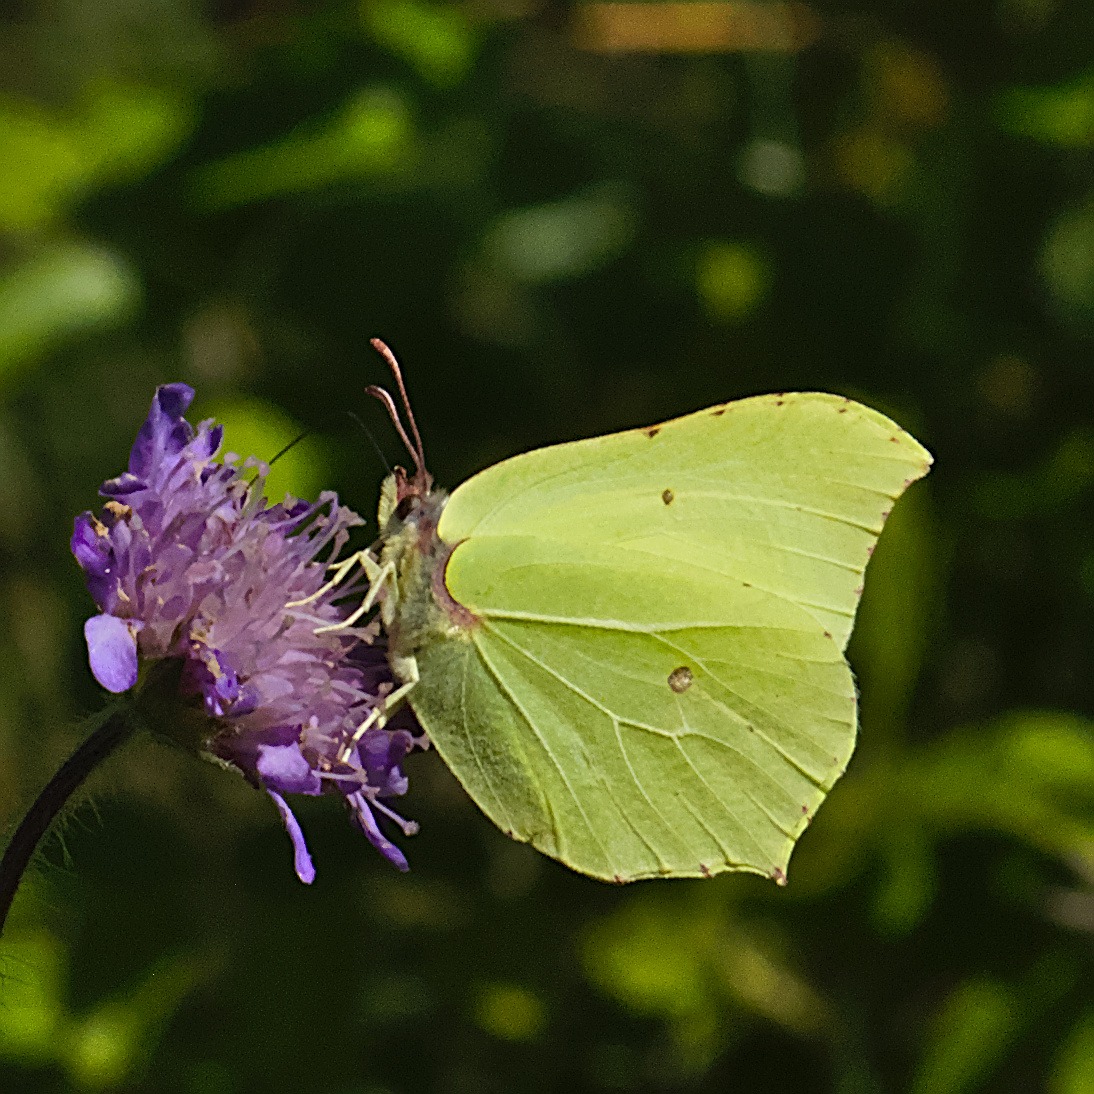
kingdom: Animalia
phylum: Arthropoda
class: Insecta
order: Lepidoptera
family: Pieridae
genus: Gonepteryx
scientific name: Gonepteryx rhamni
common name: Citronsommerfugl
